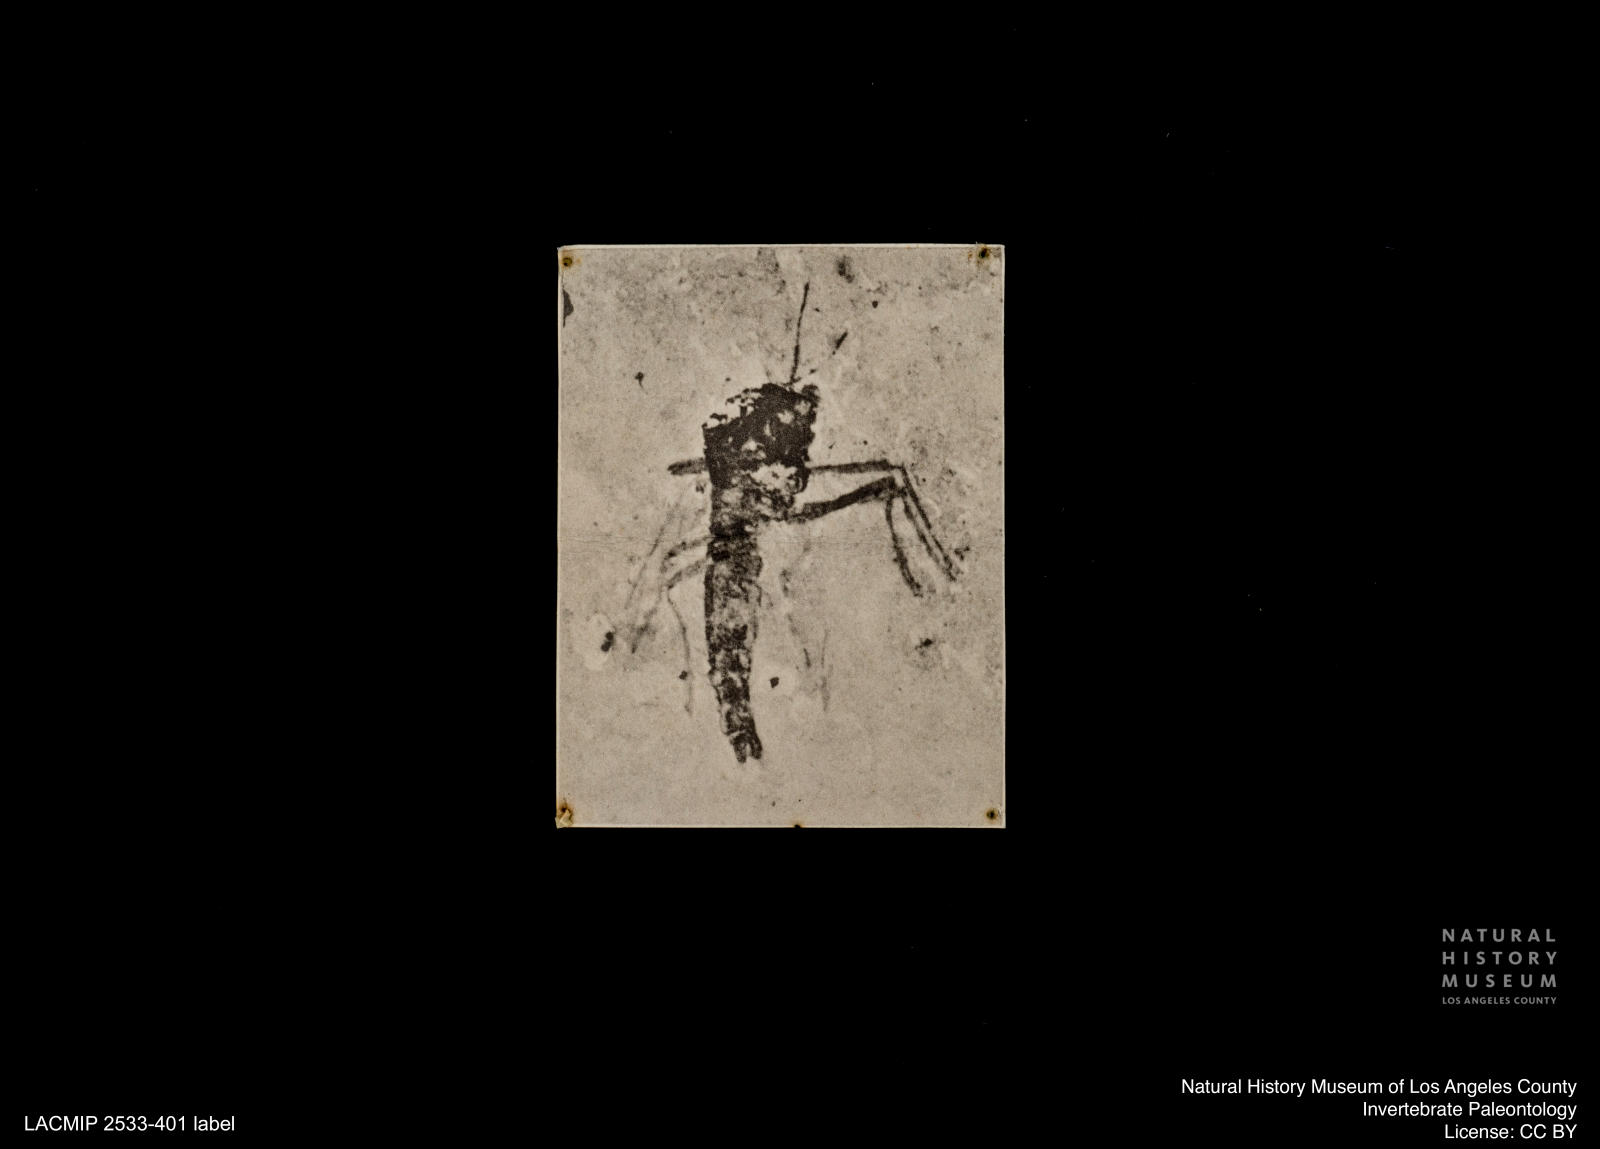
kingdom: Animalia
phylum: Arthropoda
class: Insecta
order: Diptera
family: Chironomidae
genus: Orthocladius
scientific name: Orthocladius
